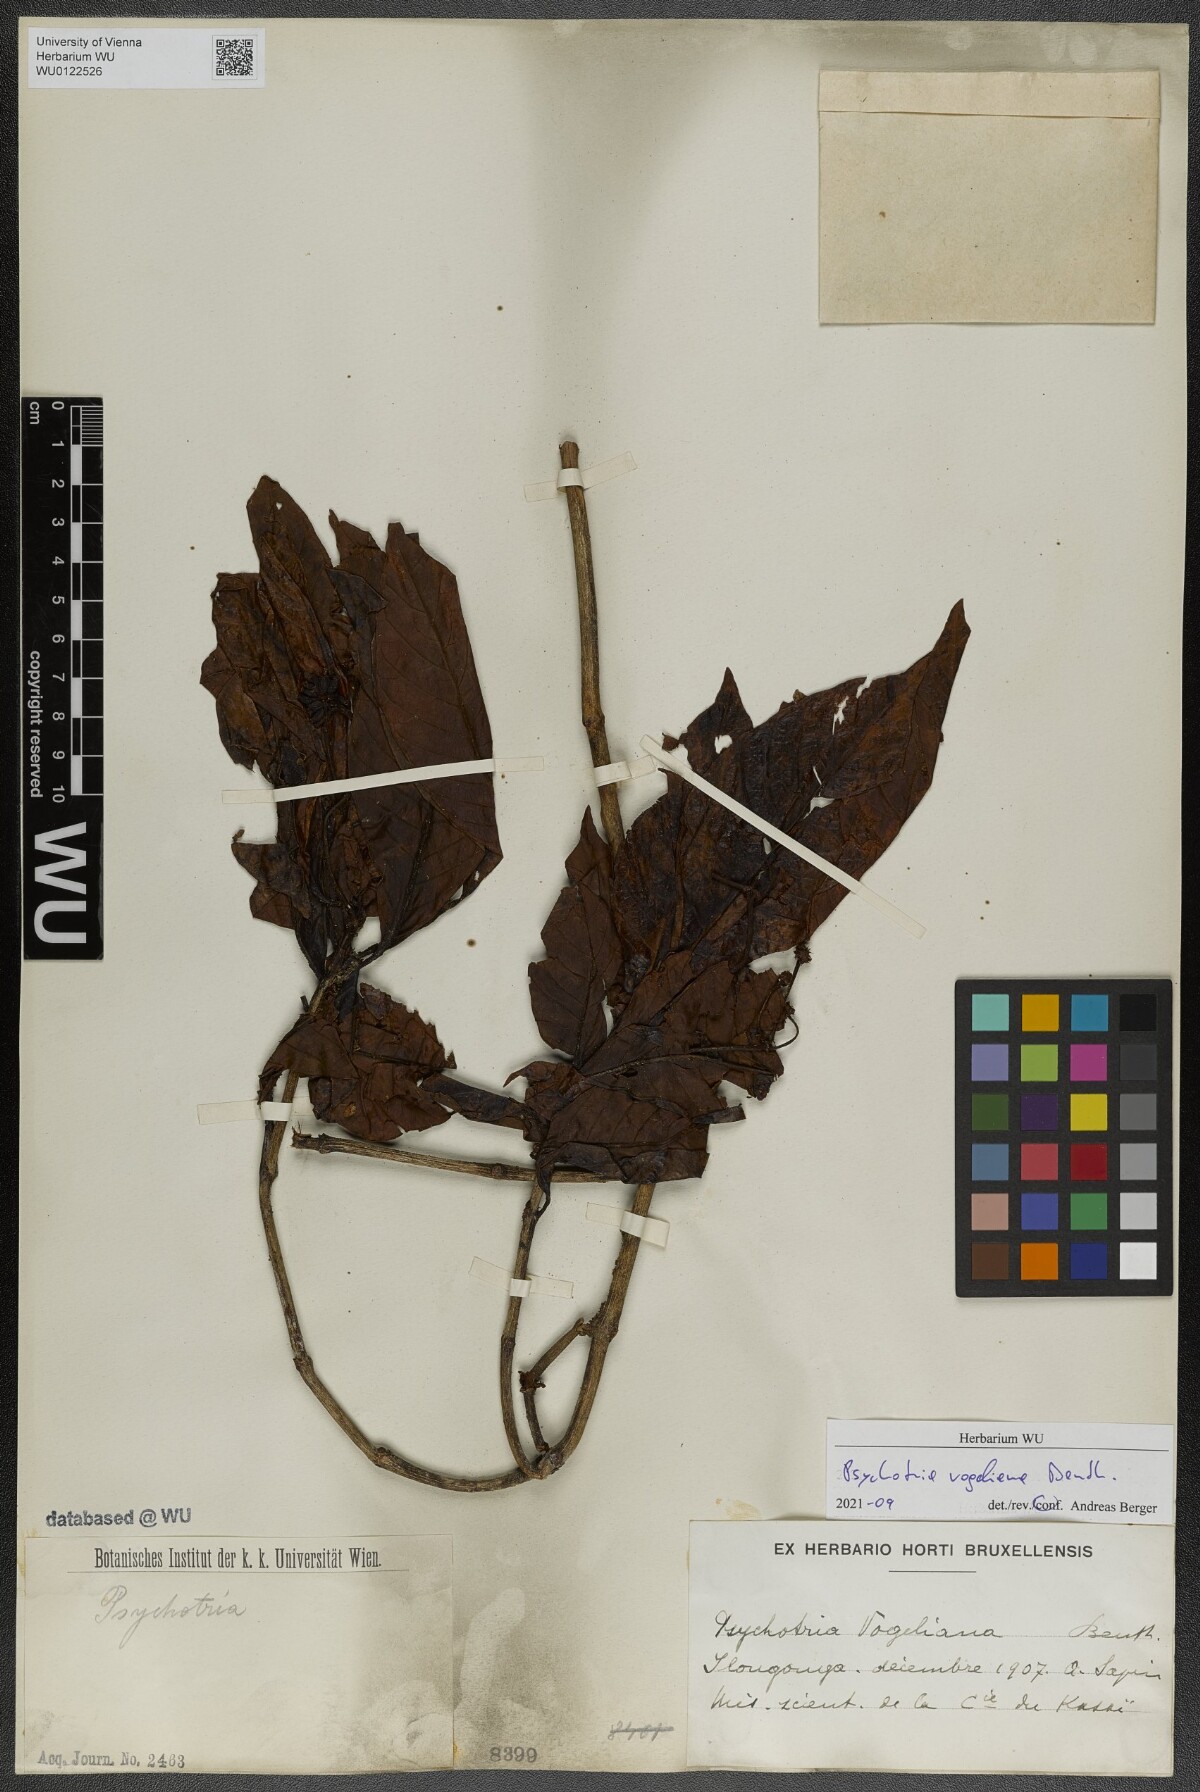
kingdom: Plantae
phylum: Tracheophyta
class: Magnoliopsida
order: Gentianales
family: Rubiaceae
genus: Psychotria
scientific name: Psychotria vogeliana
